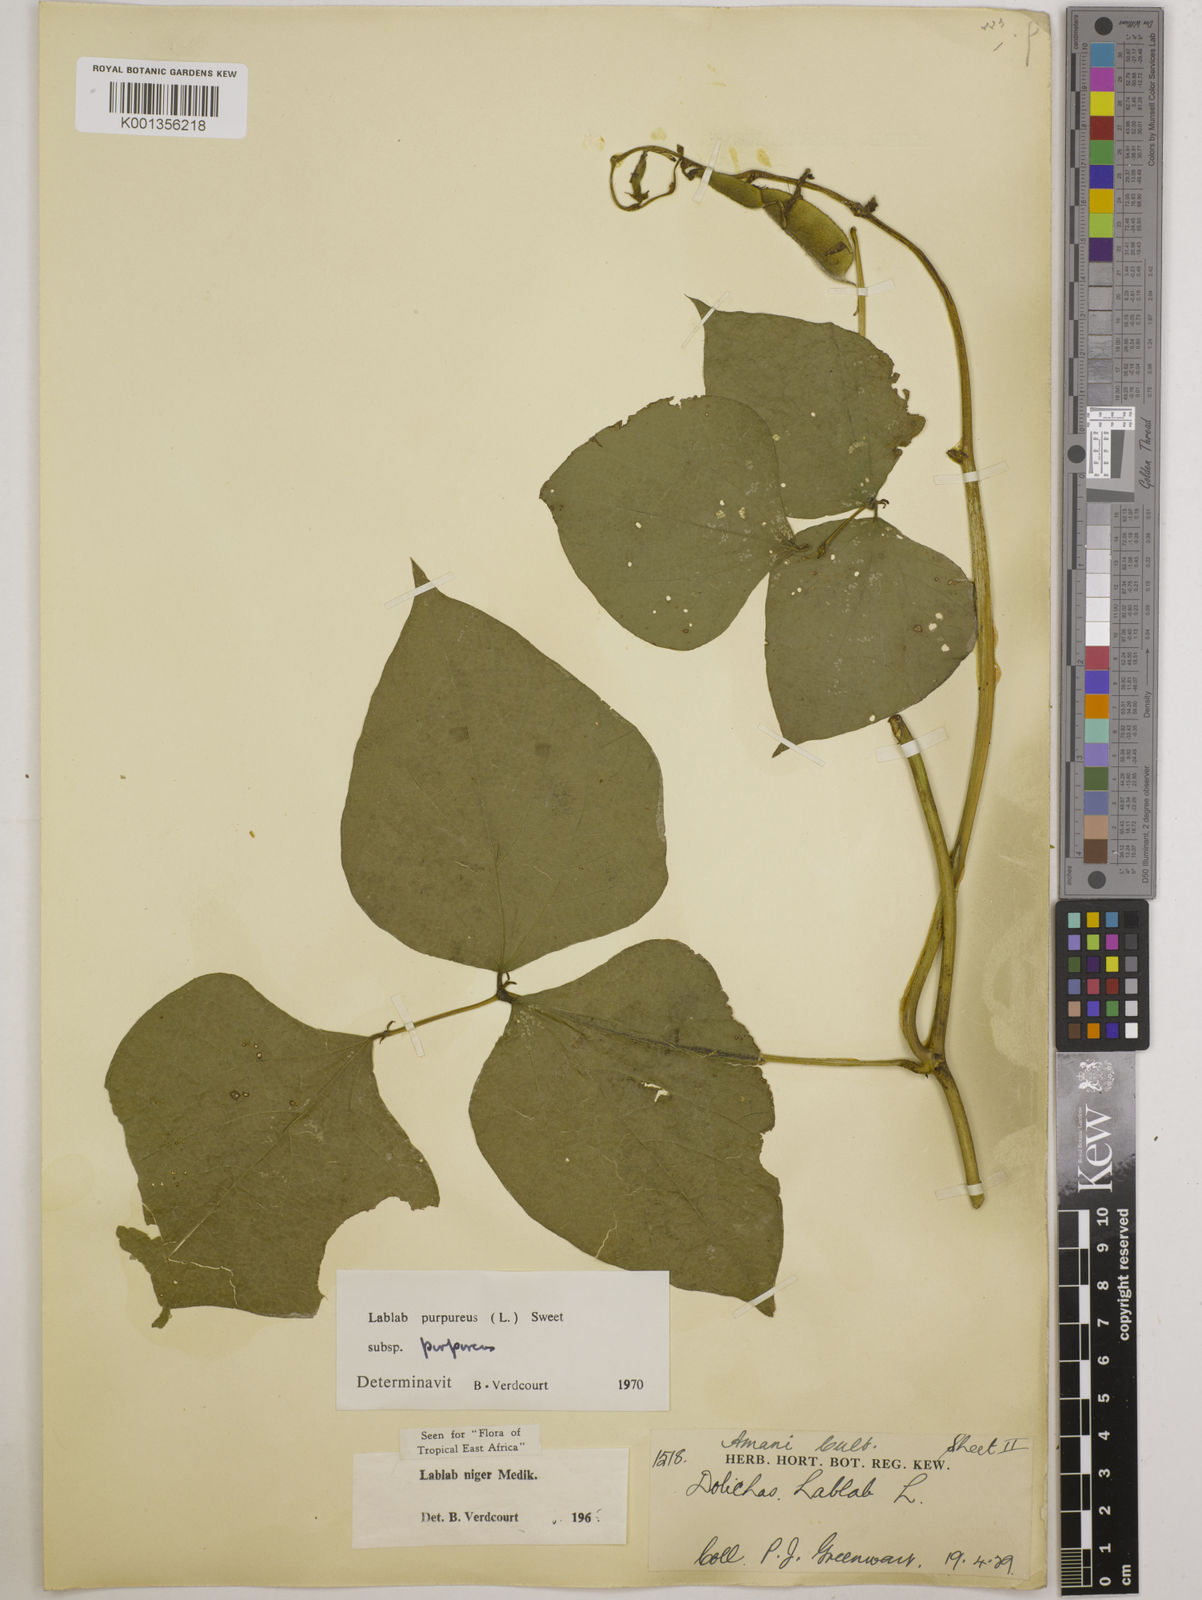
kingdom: Plantae
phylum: Tracheophyta
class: Magnoliopsida
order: Fabales
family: Fabaceae
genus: Lablab
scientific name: Lablab purpureus
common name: Lablab-bean
